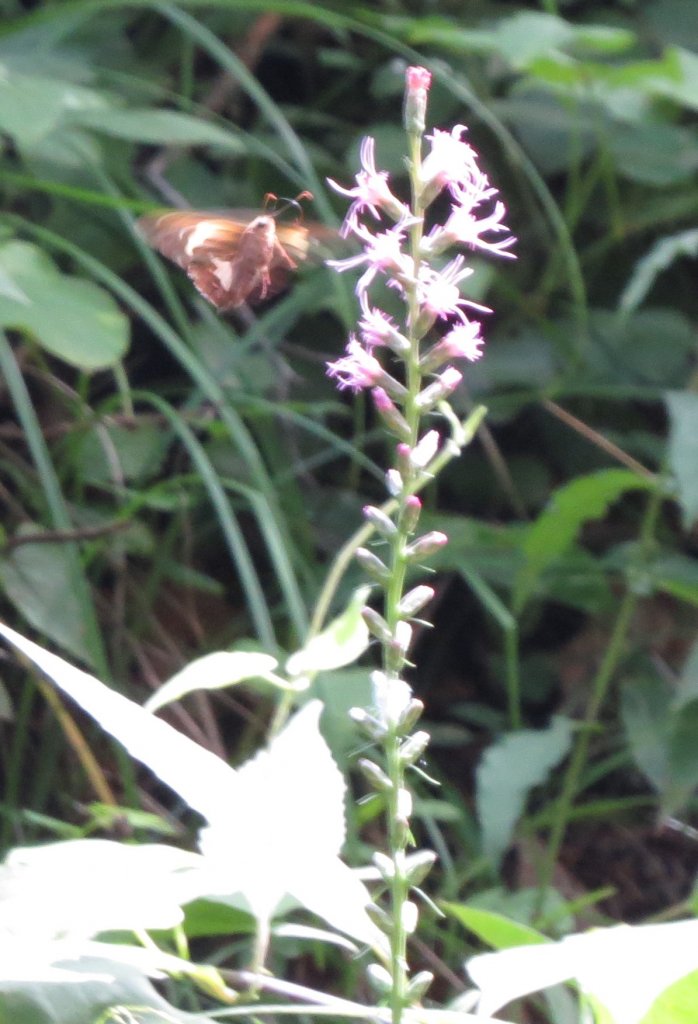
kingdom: Animalia
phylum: Arthropoda
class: Insecta
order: Lepidoptera
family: Hesperiidae
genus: Epargyreus
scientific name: Epargyreus clarus
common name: Silver-spotted Skipper
